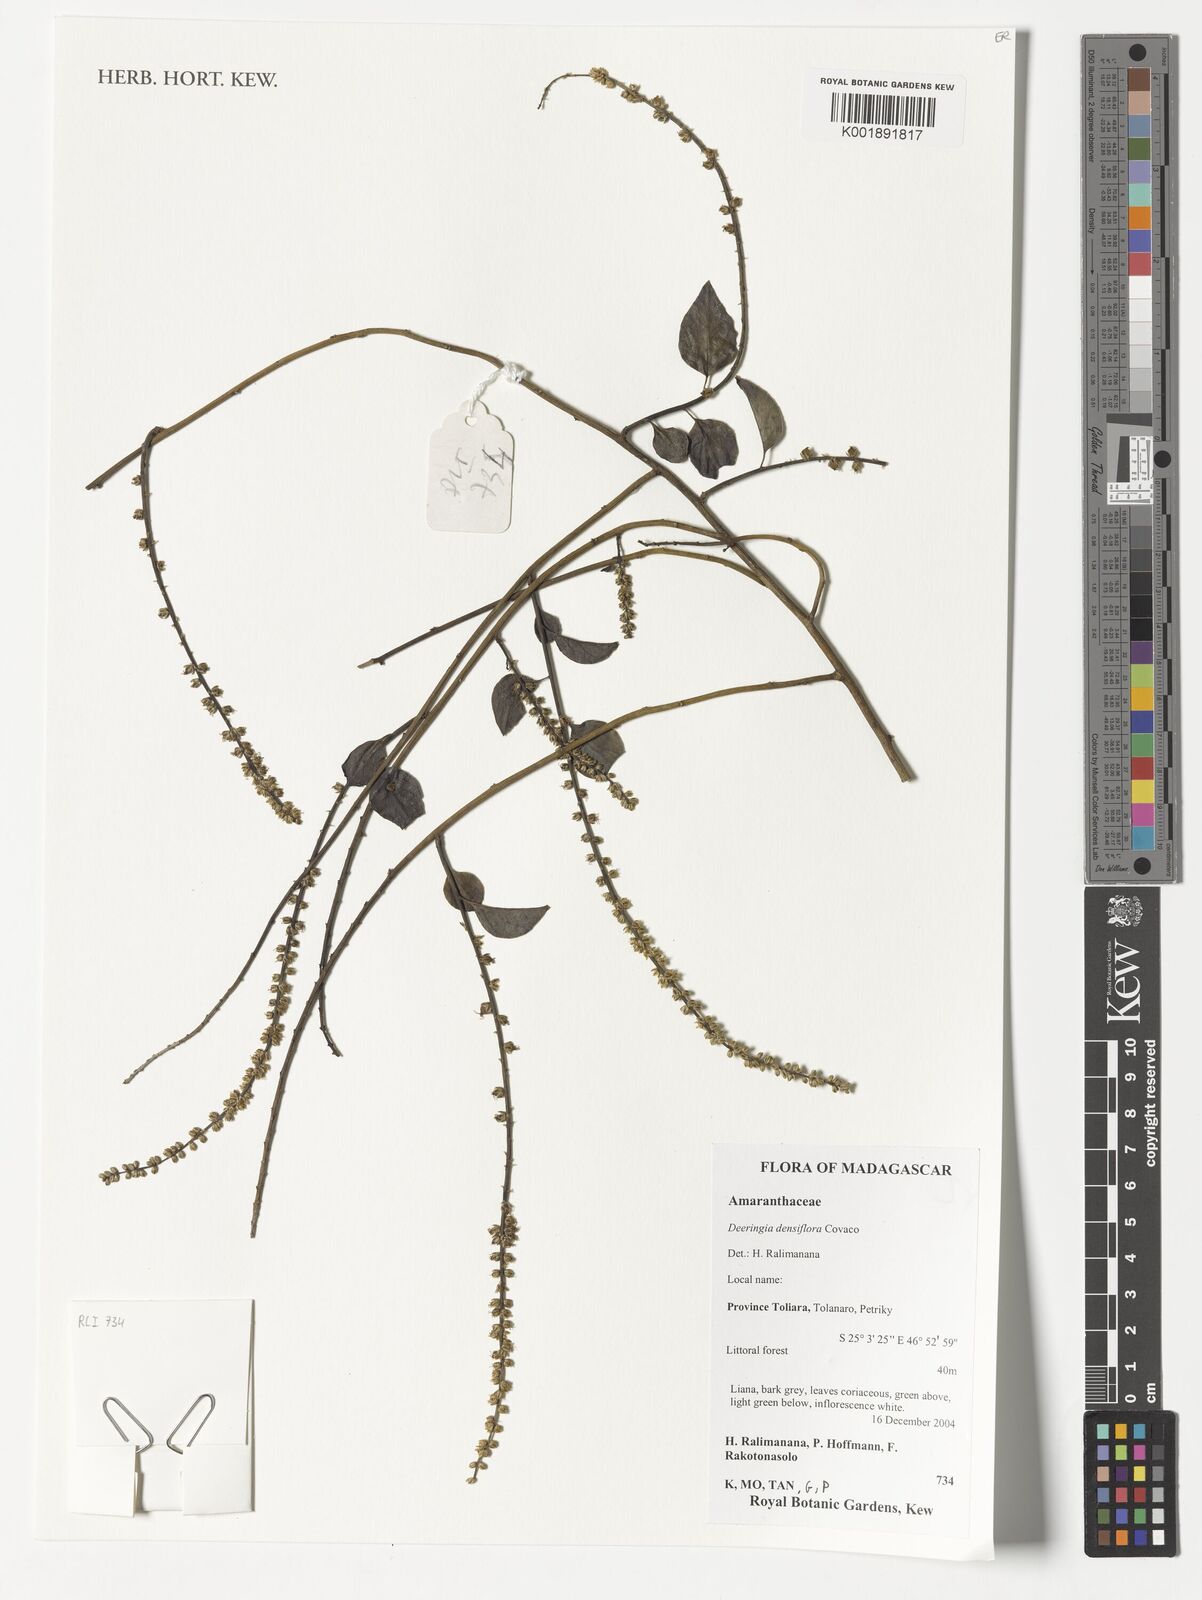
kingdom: Plantae
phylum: Tracheophyta
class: Magnoliopsida
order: Caryophyllales
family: Amaranthaceae
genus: Deeringia
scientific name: Deeringia densiflora
